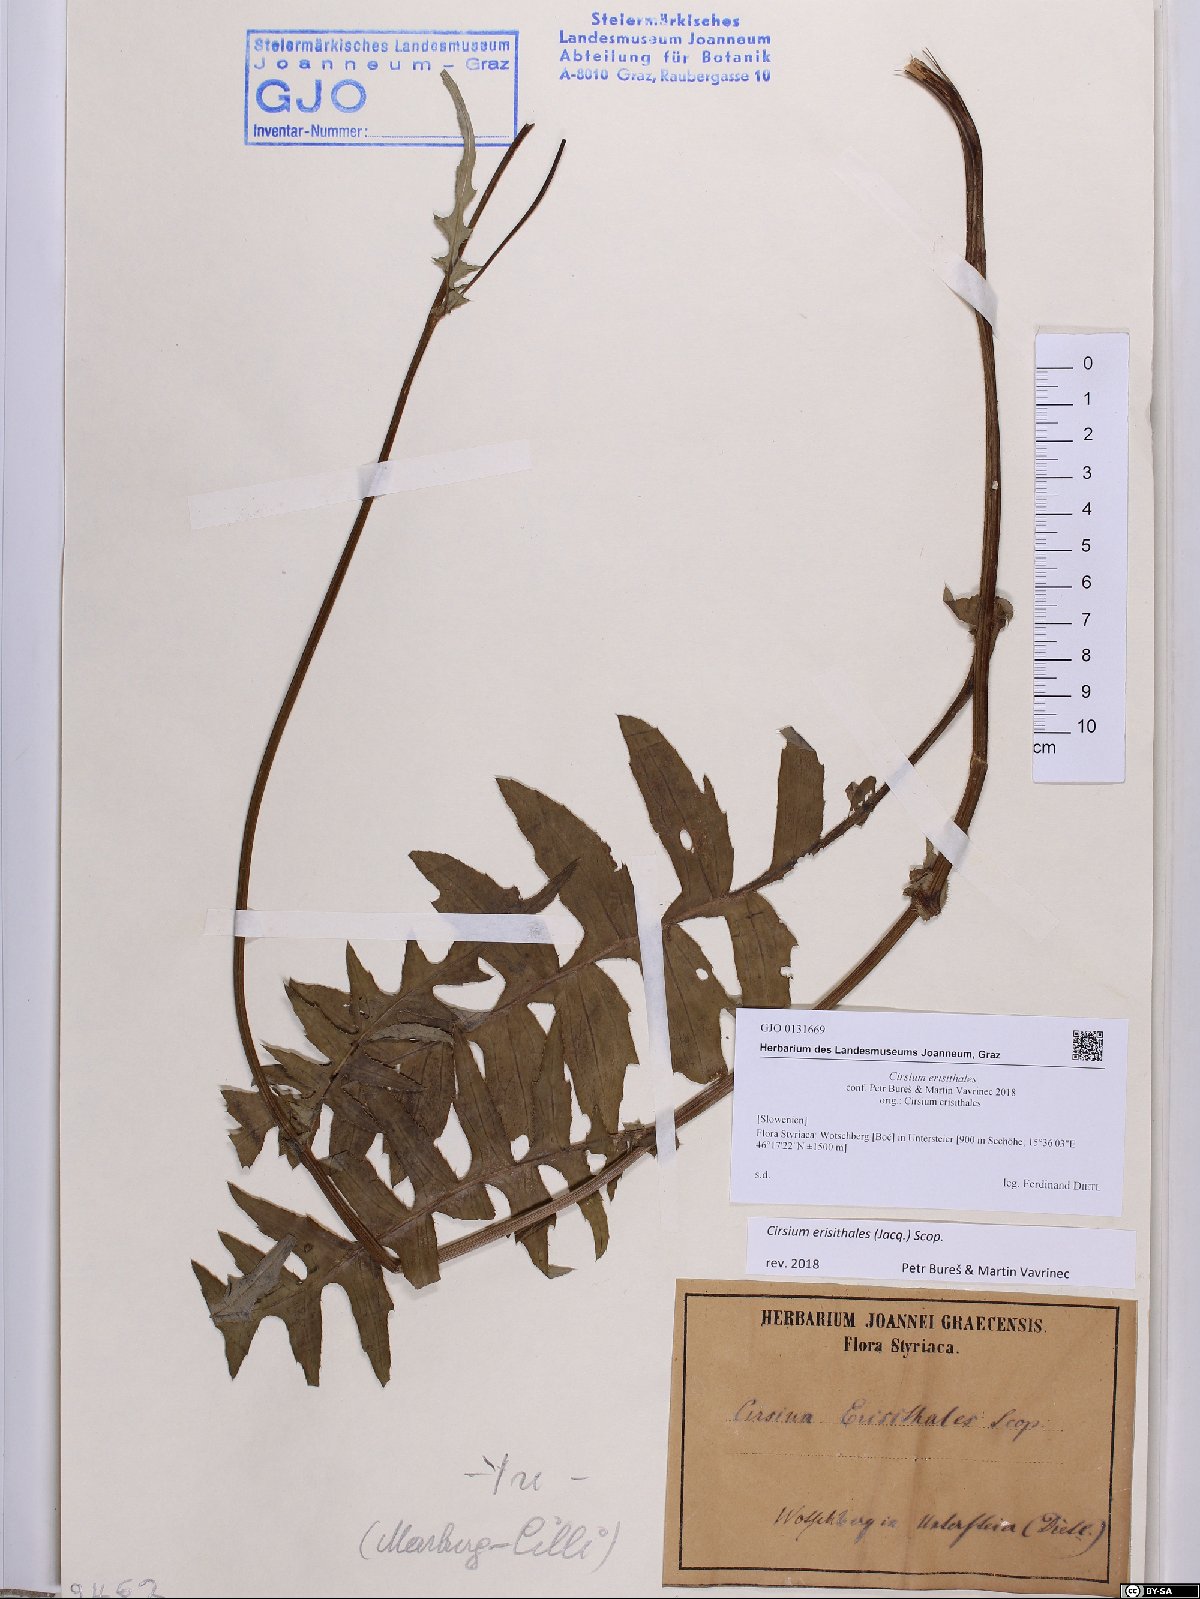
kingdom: Plantae
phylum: Tracheophyta
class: Magnoliopsida
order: Asterales
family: Asteraceae
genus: Cirsium
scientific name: Cirsium erisithales
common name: Yellow thistle
